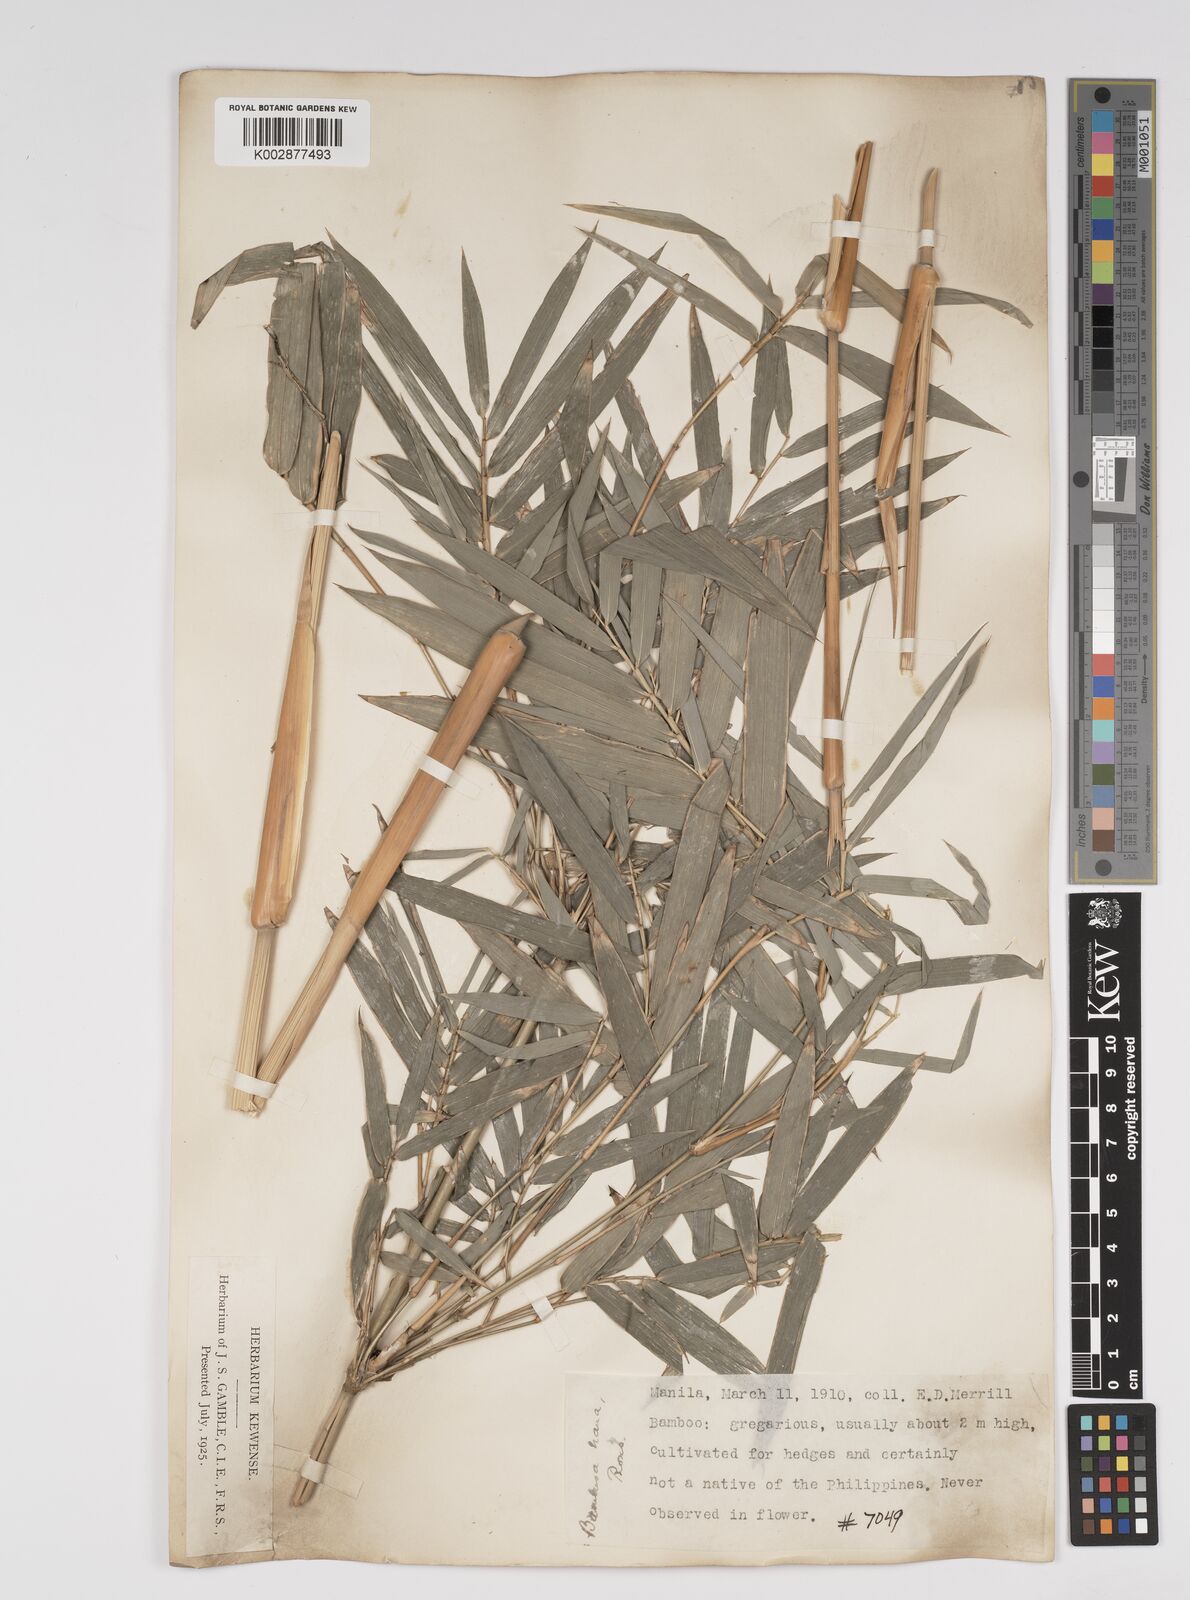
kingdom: Plantae
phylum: Tracheophyta
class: Liliopsida
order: Poales
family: Poaceae
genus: Bambusa
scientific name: Bambusa multiplex
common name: Hedge bamboo
